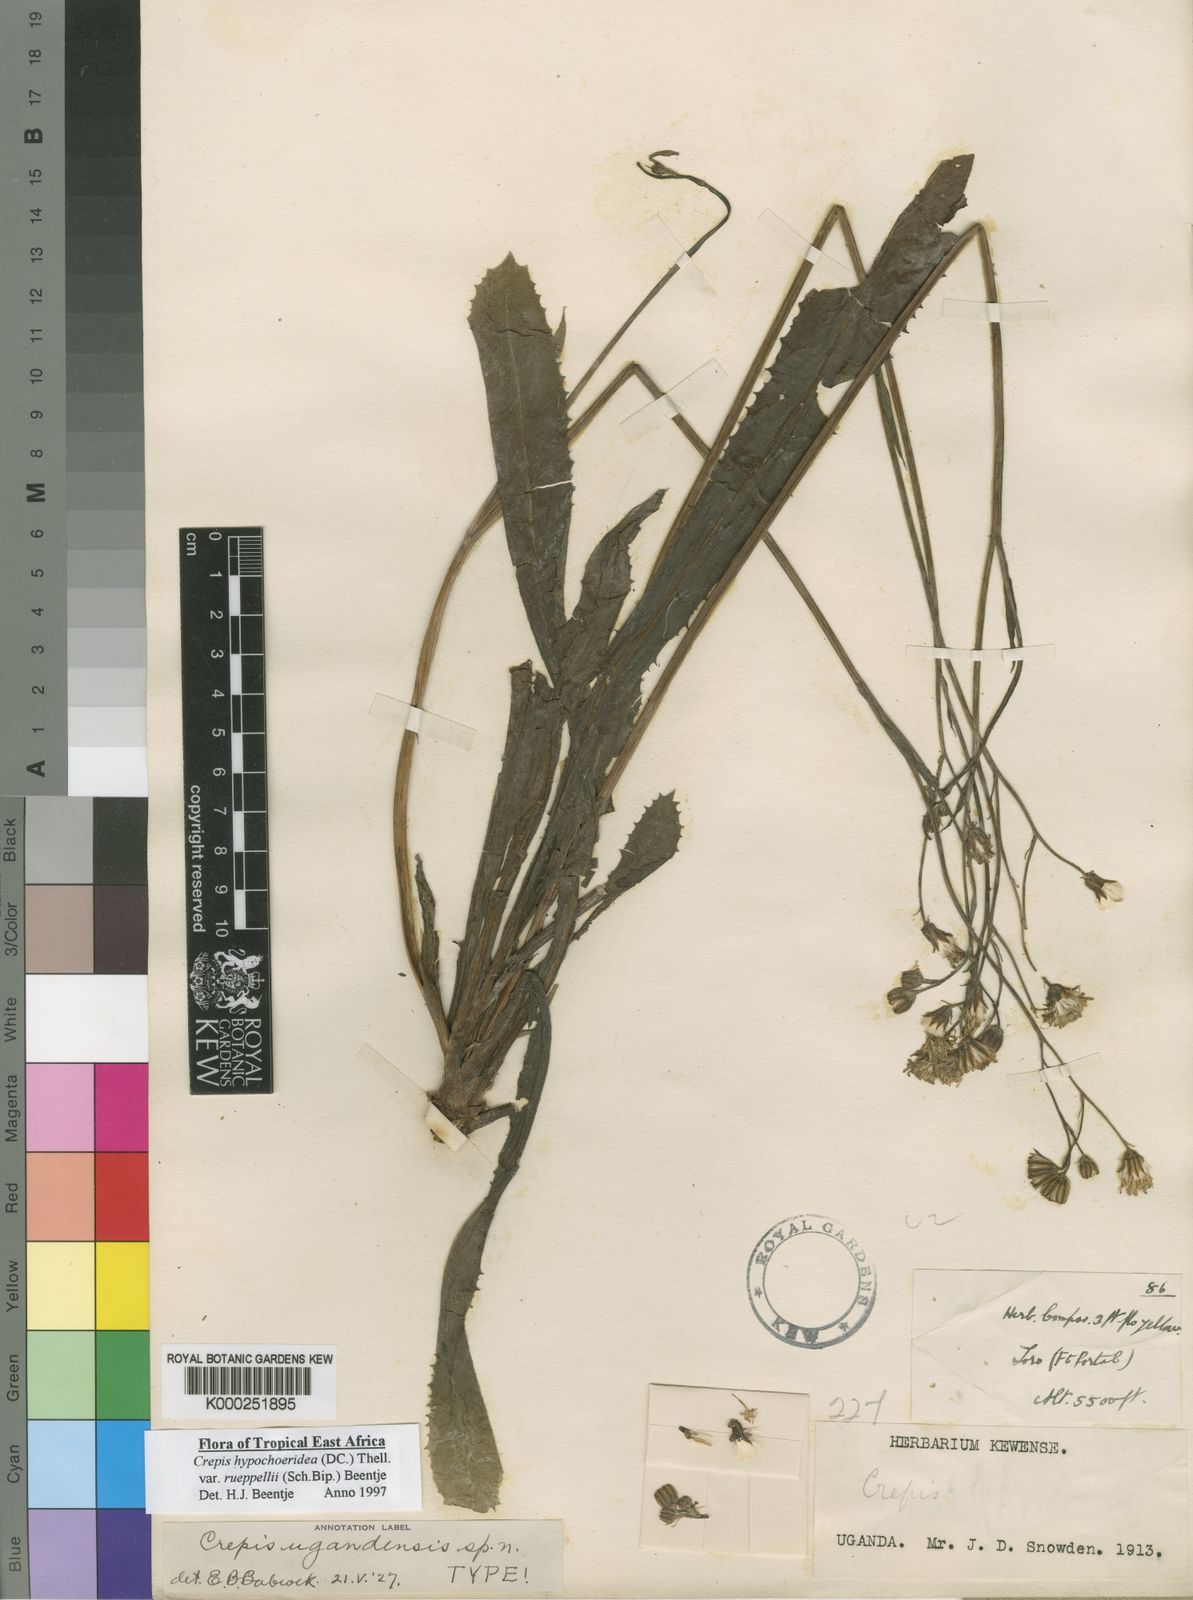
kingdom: Plantae
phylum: Tracheophyta
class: Magnoliopsida
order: Asterales
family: Asteraceae
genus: Crepis
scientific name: Crepis rueppellii
